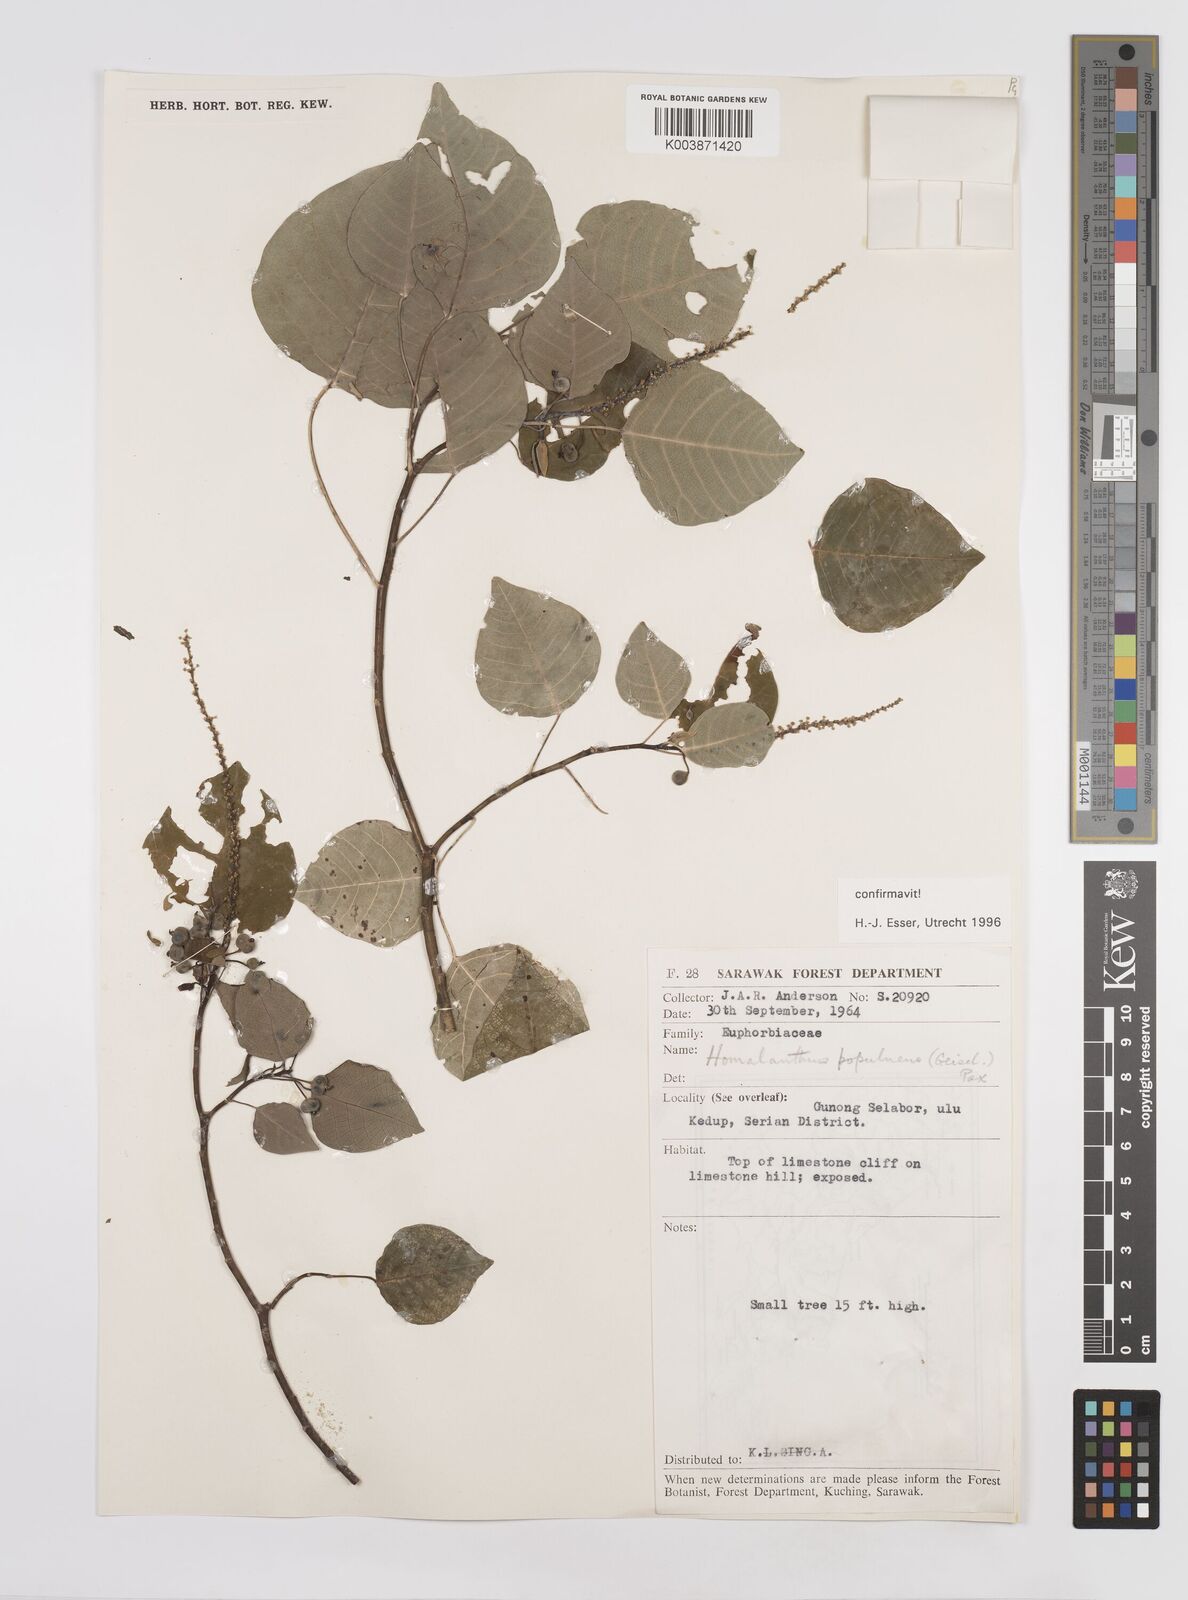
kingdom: Plantae
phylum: Tracheophyta
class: Magnoliopsida
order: Malpighiales
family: Euphorbiaceae
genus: Homalanthus
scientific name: Homalanthus populneus
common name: Spurge
